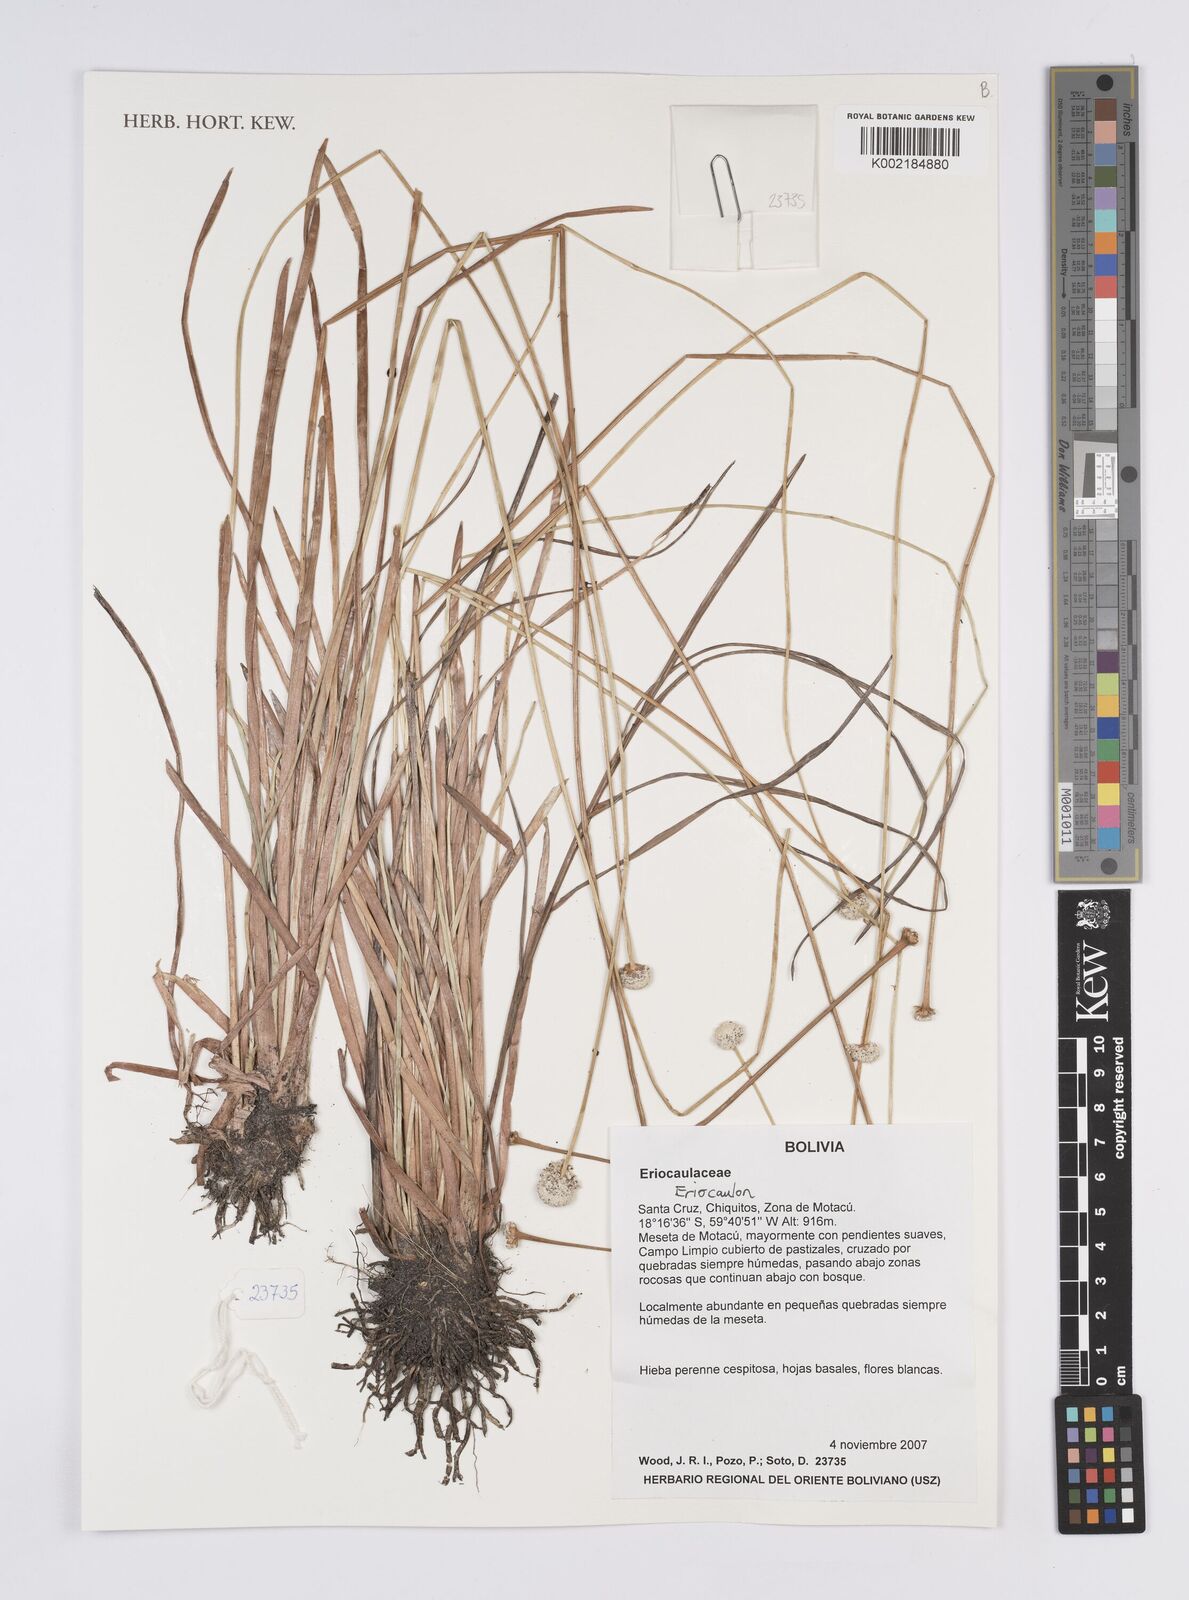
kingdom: Plantae
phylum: Tracheophyta
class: Liliopsida
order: Poales
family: Eriocaulaceae
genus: Eriocaulon
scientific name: Eriocaulon
